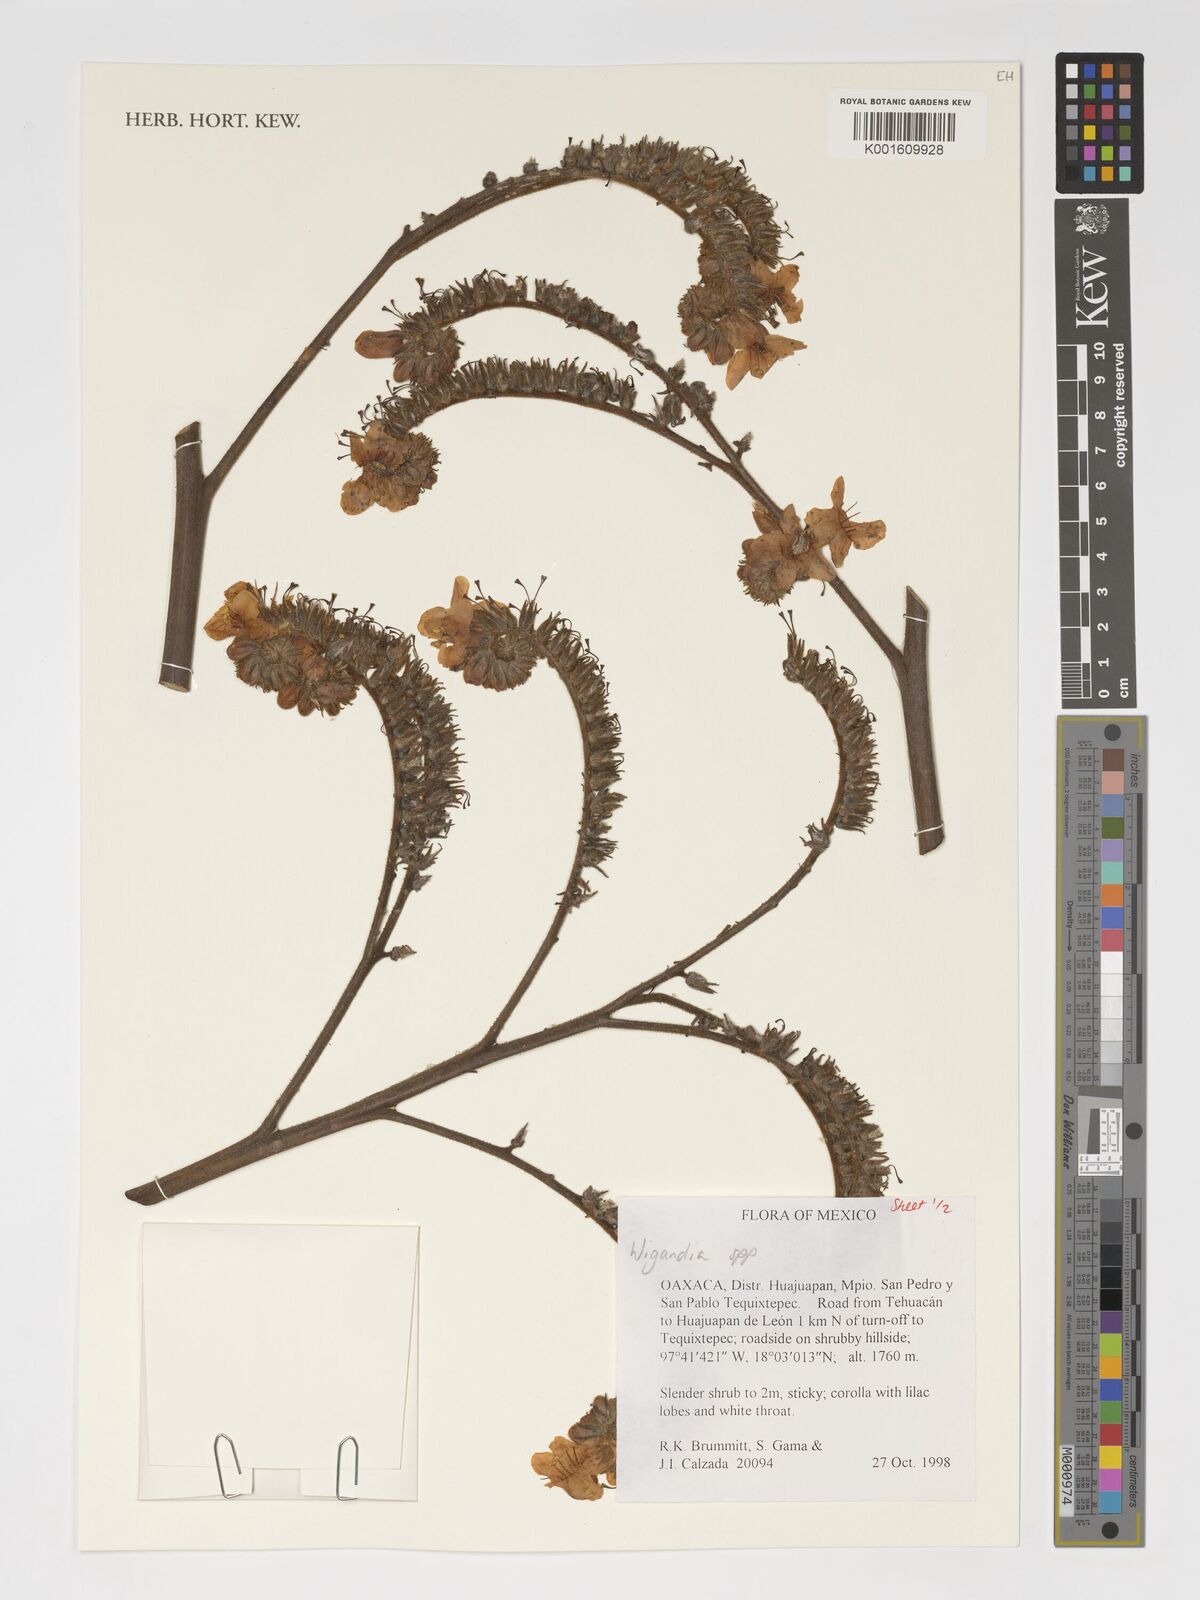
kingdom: Plantae
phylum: Tracheophyta
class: Magnoliopsida
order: Boraginales
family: Namaceae
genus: Wigandia
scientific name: Wigandia
